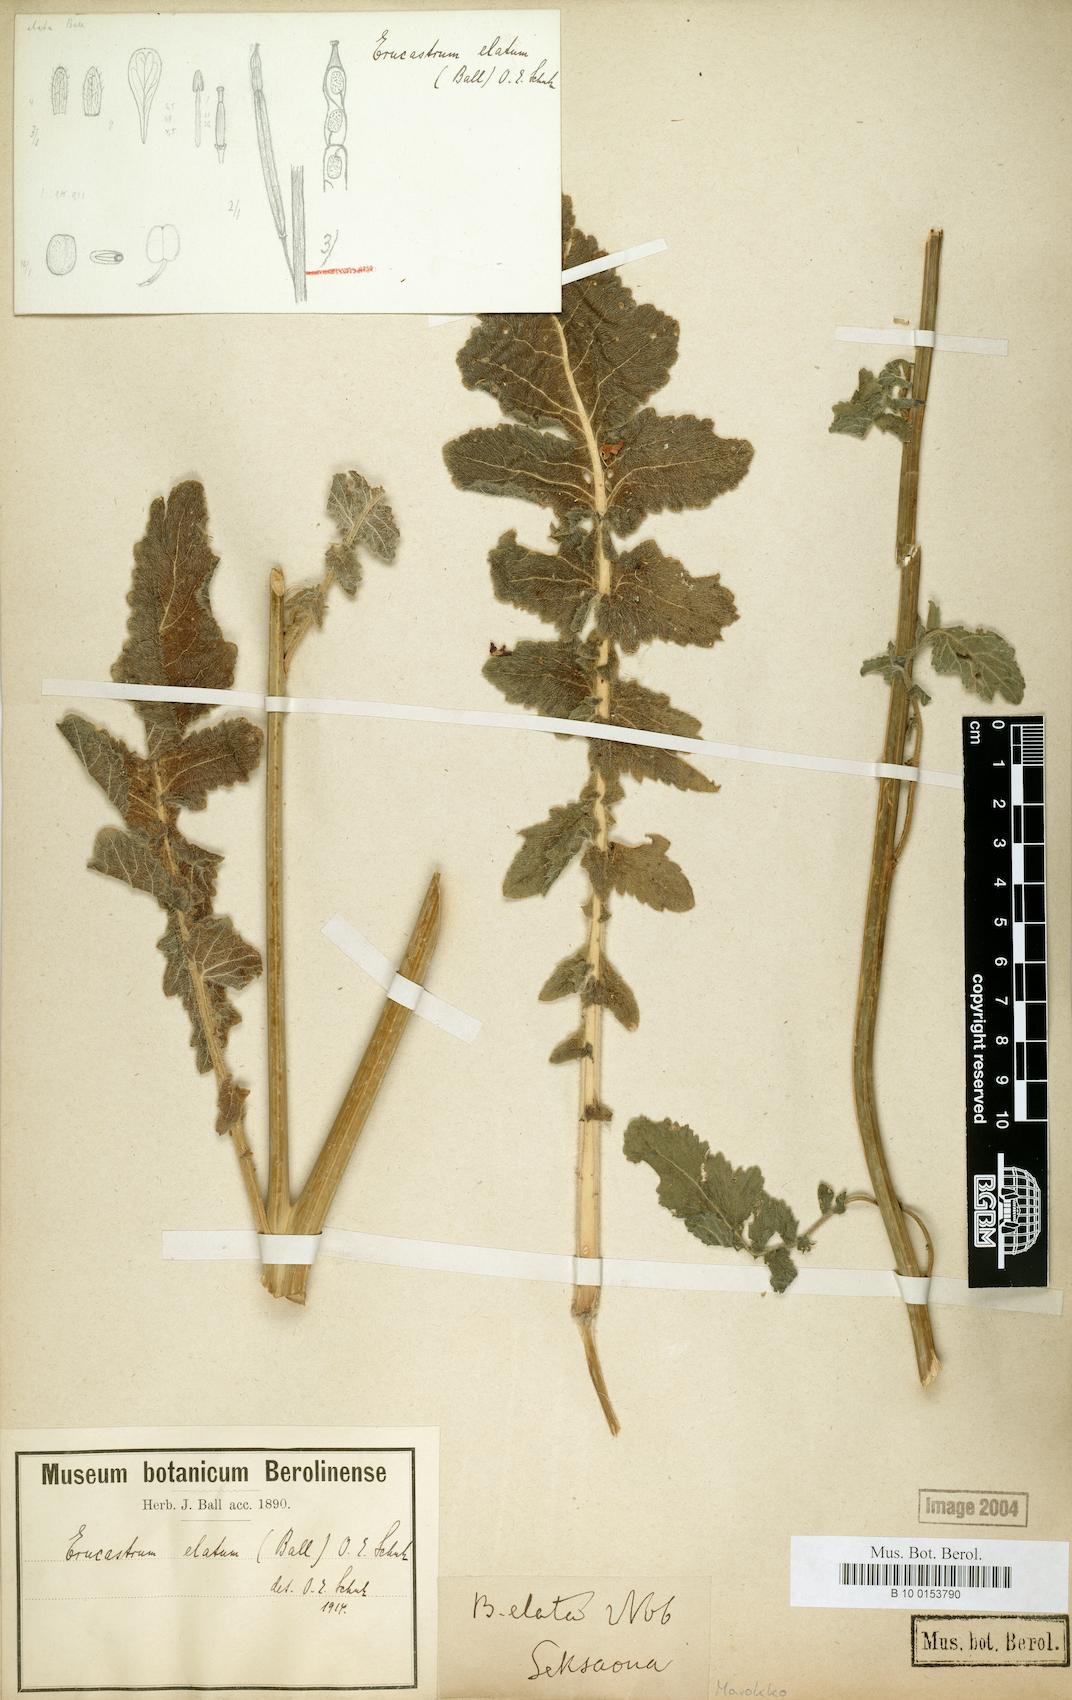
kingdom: Plantae
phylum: Tracheophyta
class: Magnoliopsida
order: Brassicales
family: Brassicaceae
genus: Erucastrum
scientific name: Erucastrum elatum
